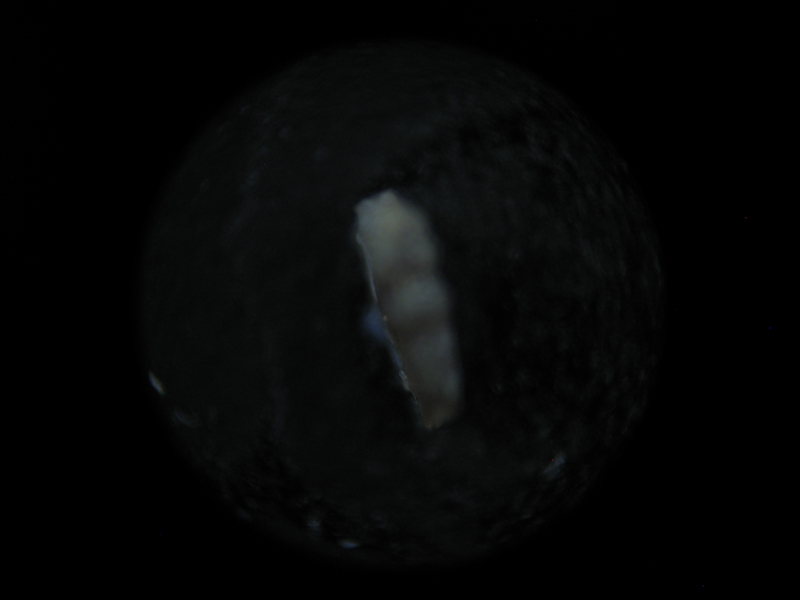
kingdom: Animalia
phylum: Chordata
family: Icriodontidae
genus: Icriodus
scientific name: Icriodus
